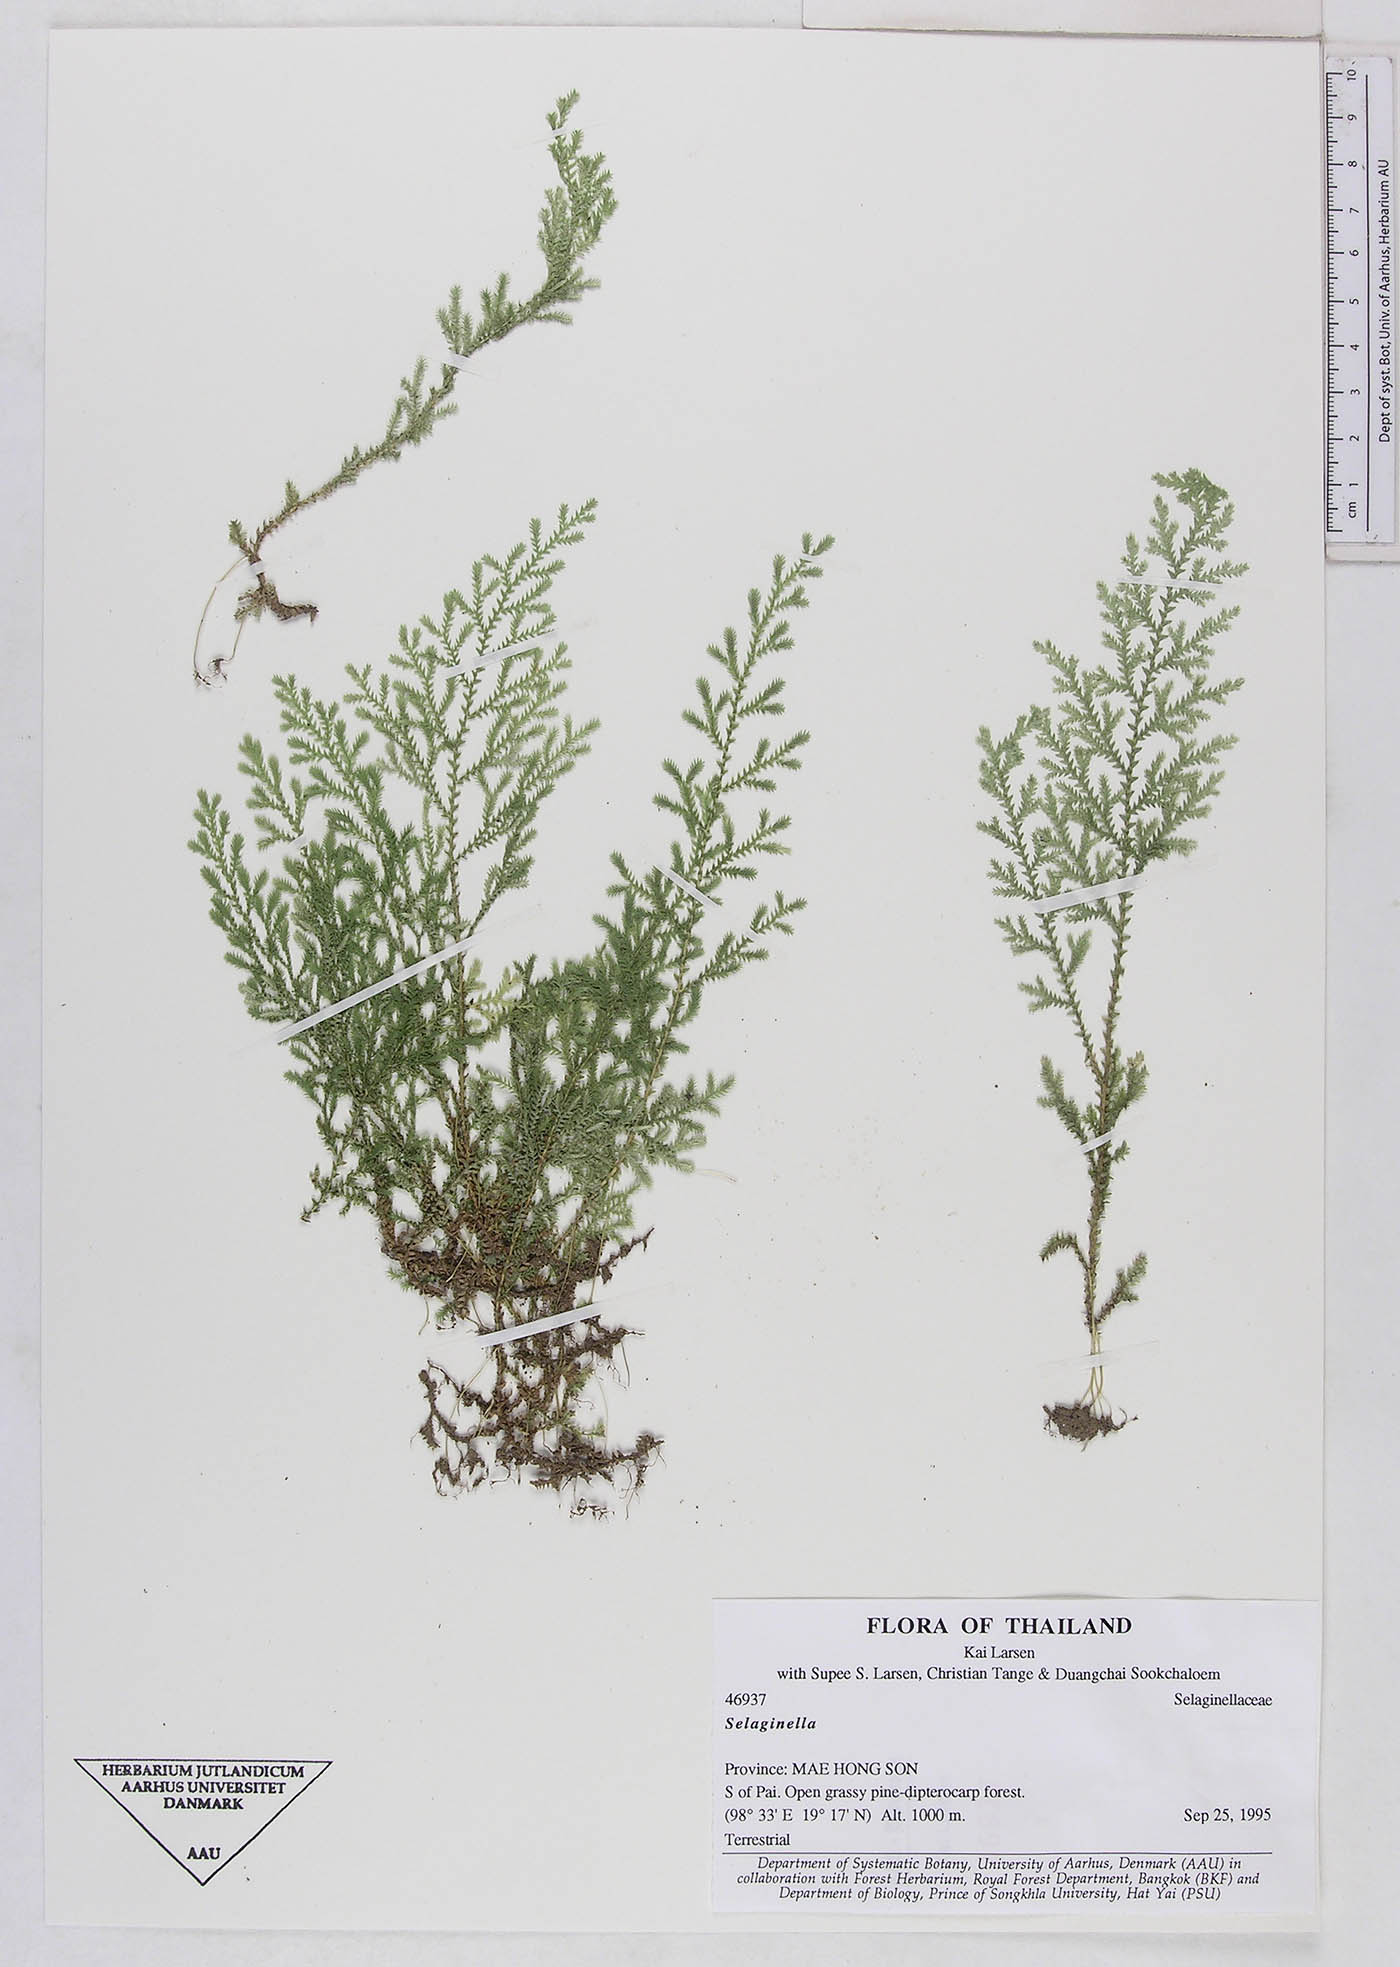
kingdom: Plantae
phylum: Tracheophyta
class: Lycopodiopsida
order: Selaginellales
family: Selaginellaceae
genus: Selaginella
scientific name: Selaginella
